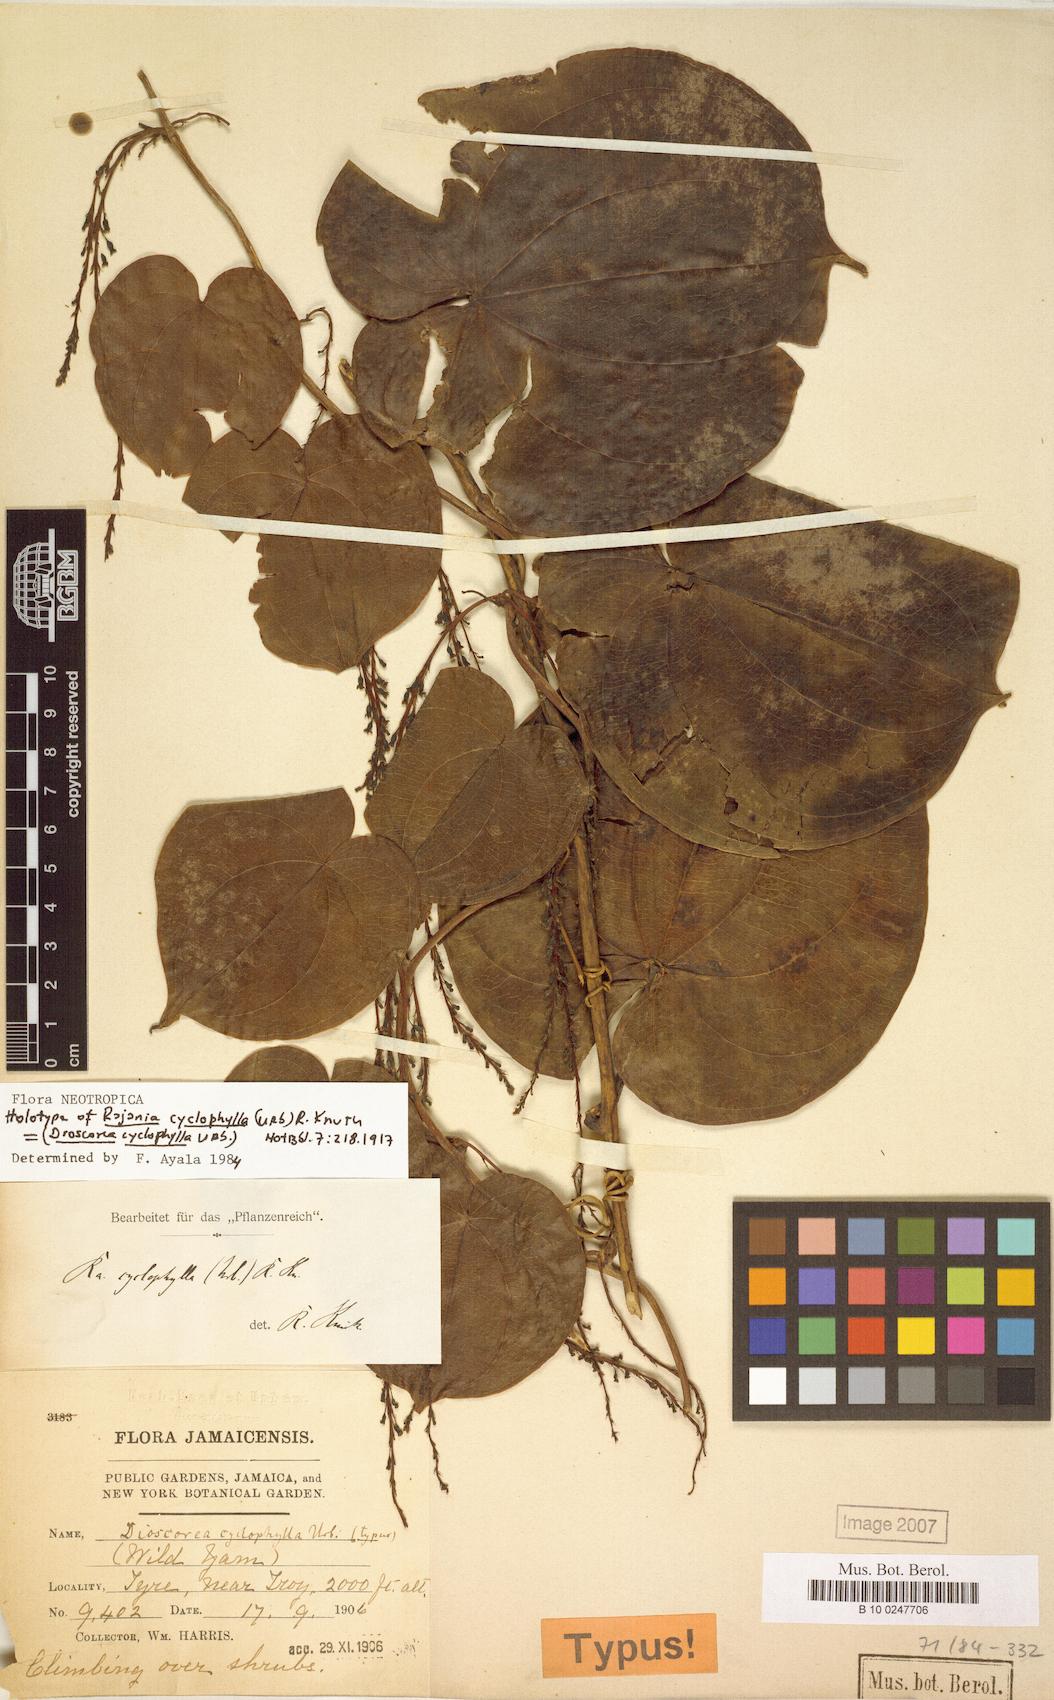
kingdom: Plantae
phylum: Tracheophyta
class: Liliopsida
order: Dioscoreales
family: Dioscoreaceae
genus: Dioscorea
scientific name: Dioscorea cordata
